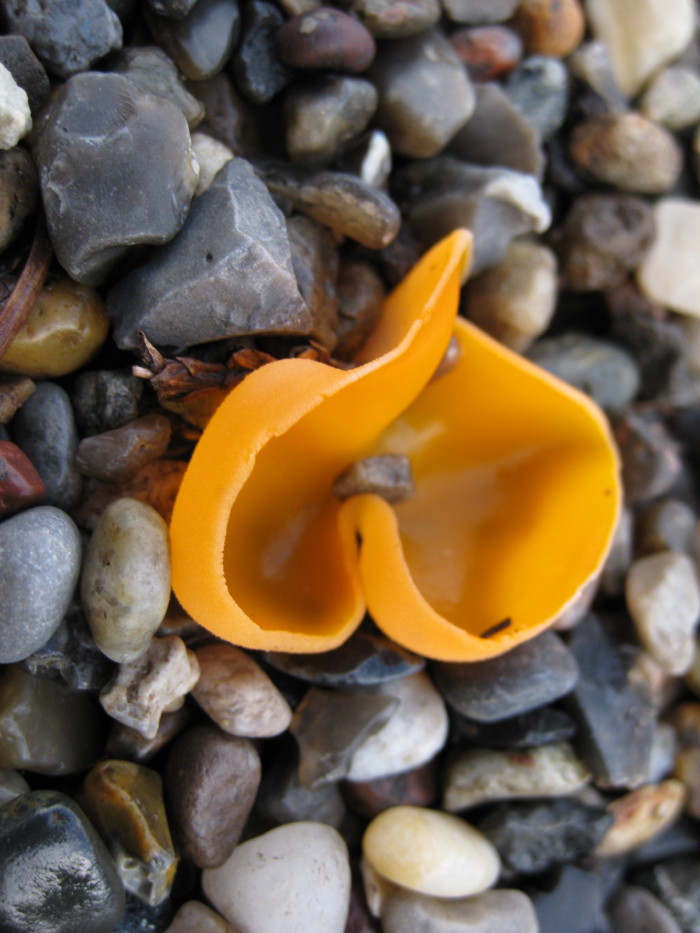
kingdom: Fungi
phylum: Ascomycota
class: Pezizomycetes
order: Pezizales
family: Pyronemataceae
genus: Aleuria
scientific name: Aleuria aurantia
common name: almindelig orangebæger
